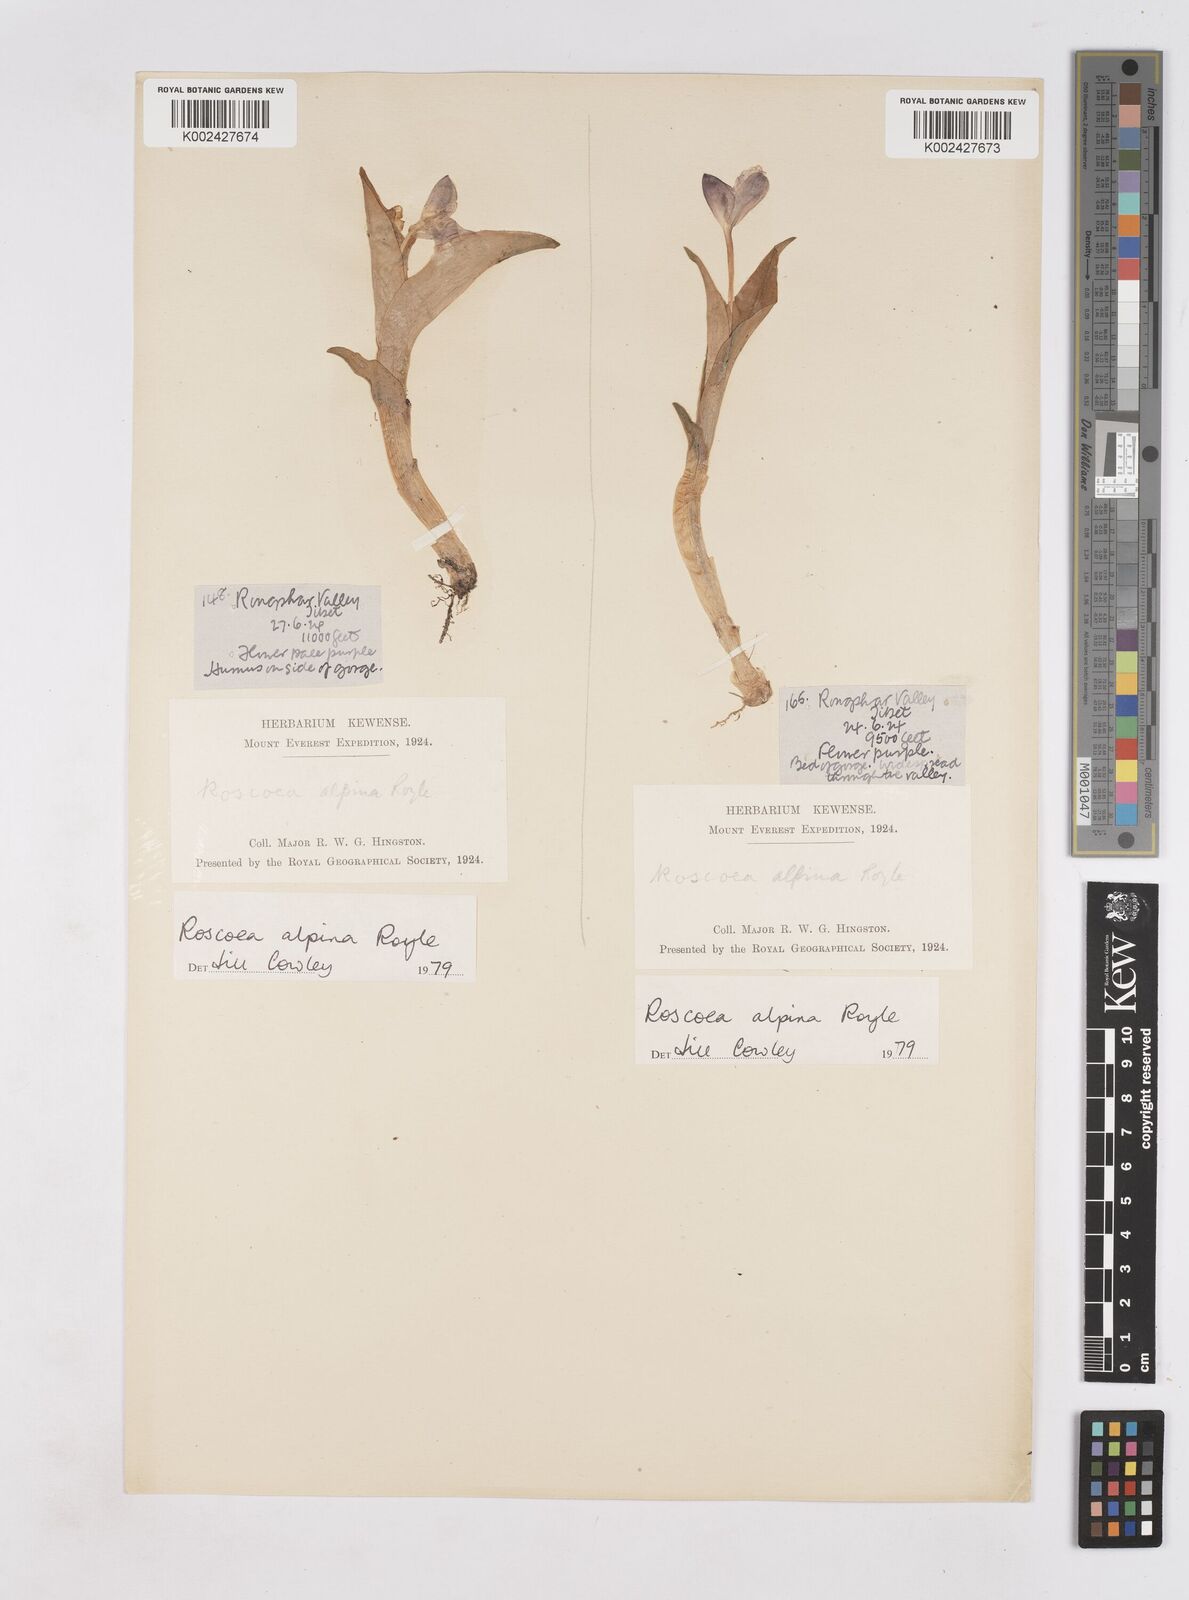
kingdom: Plantae
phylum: Tracheophyta
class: Liliopsida
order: Zingiberales
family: Zingiberaceae
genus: Roscoea
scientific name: Roscoea alpina
